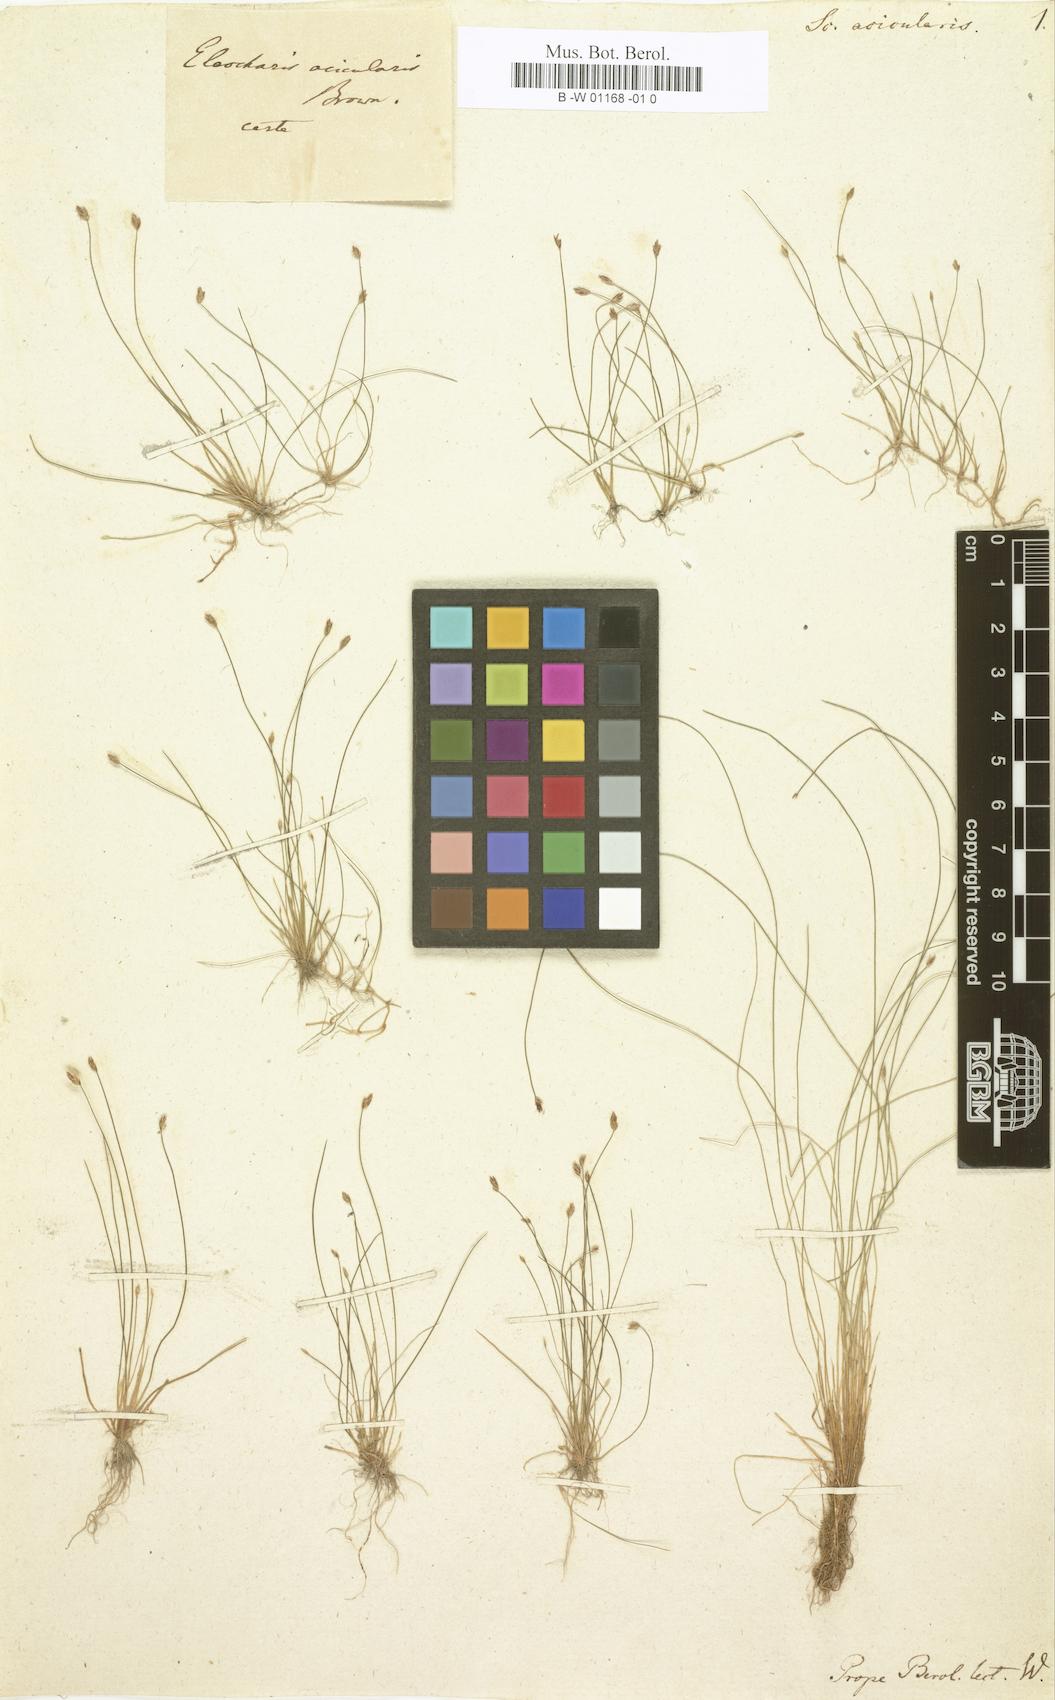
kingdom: Plantae
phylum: Tracheophyta
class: Liliopsida
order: Poales
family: Cyperaceae
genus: Scirpus
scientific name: Scirpus acicularis
